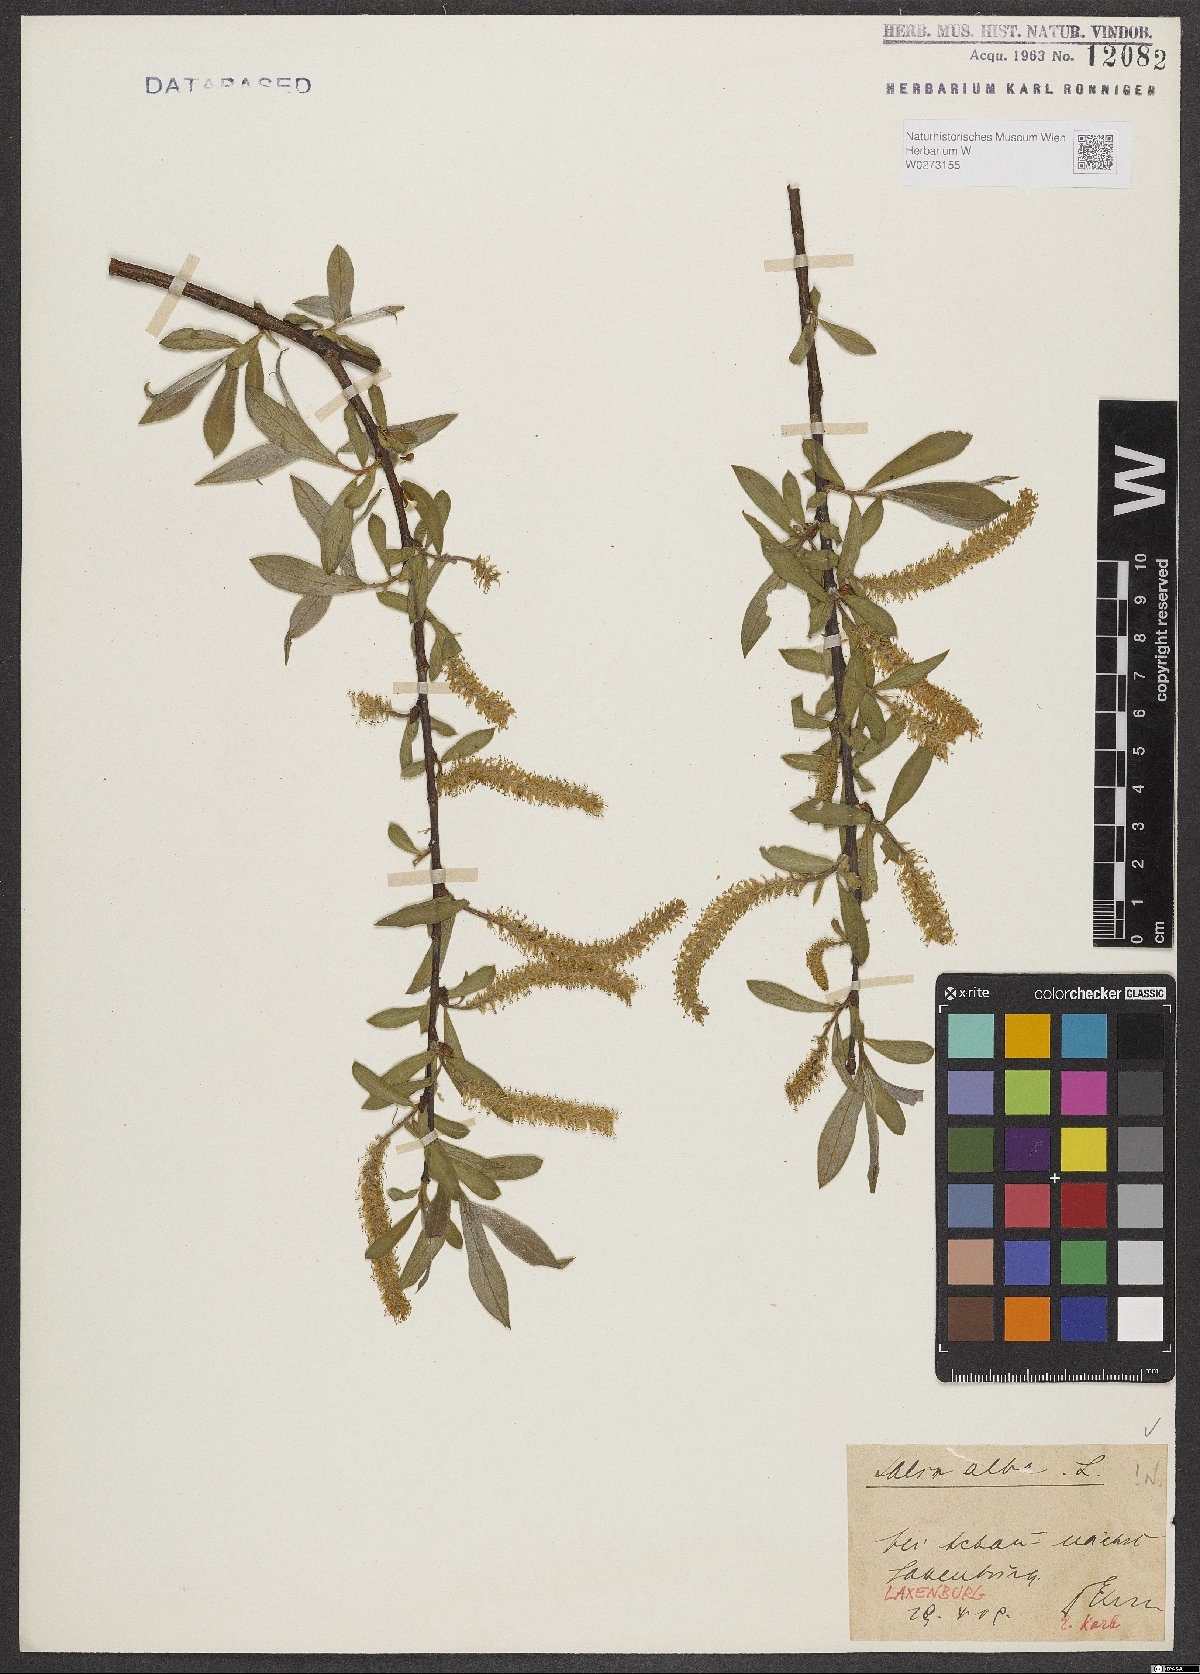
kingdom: Plantae
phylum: Tracheophyta
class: Magnoliopsida
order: Malpighiales
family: Salicaceae
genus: Salix
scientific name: Salix alba
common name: White willow
